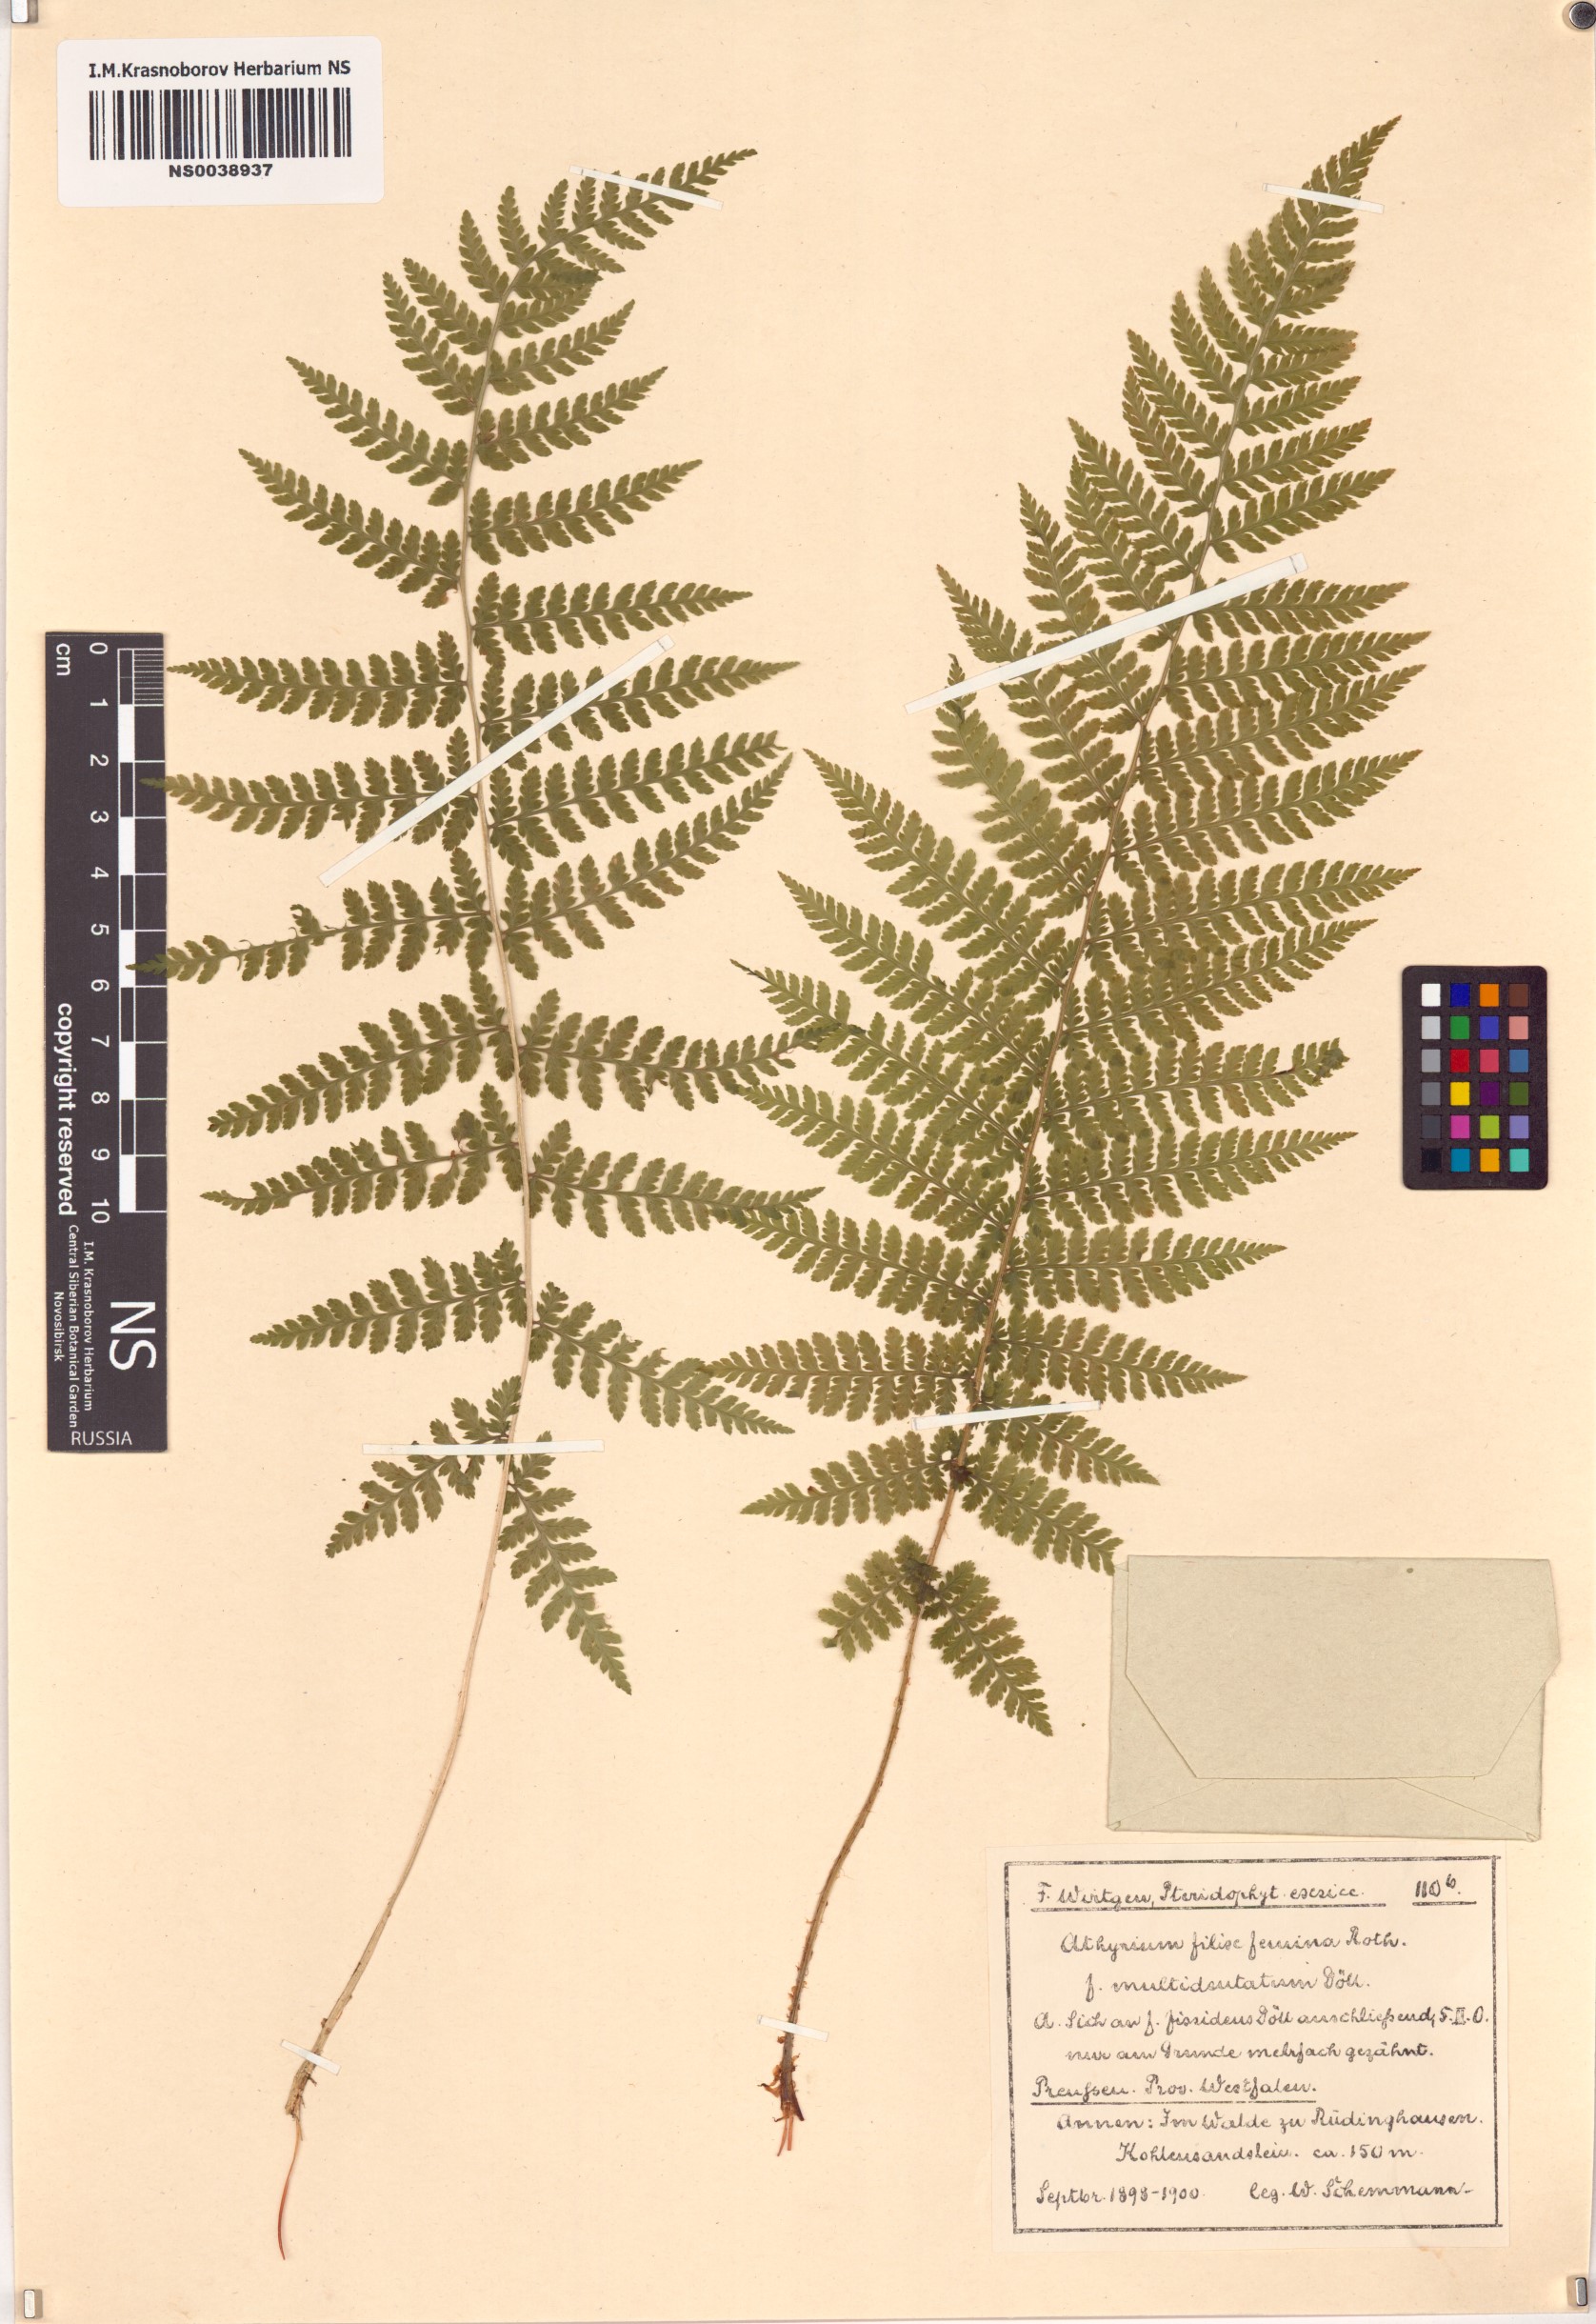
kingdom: Plantae
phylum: Tracheophyta
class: Polypodiopsida
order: Polypodiales
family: Athyriaceae
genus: Athyrium
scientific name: Athyrium filix-femina
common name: Lady fern
